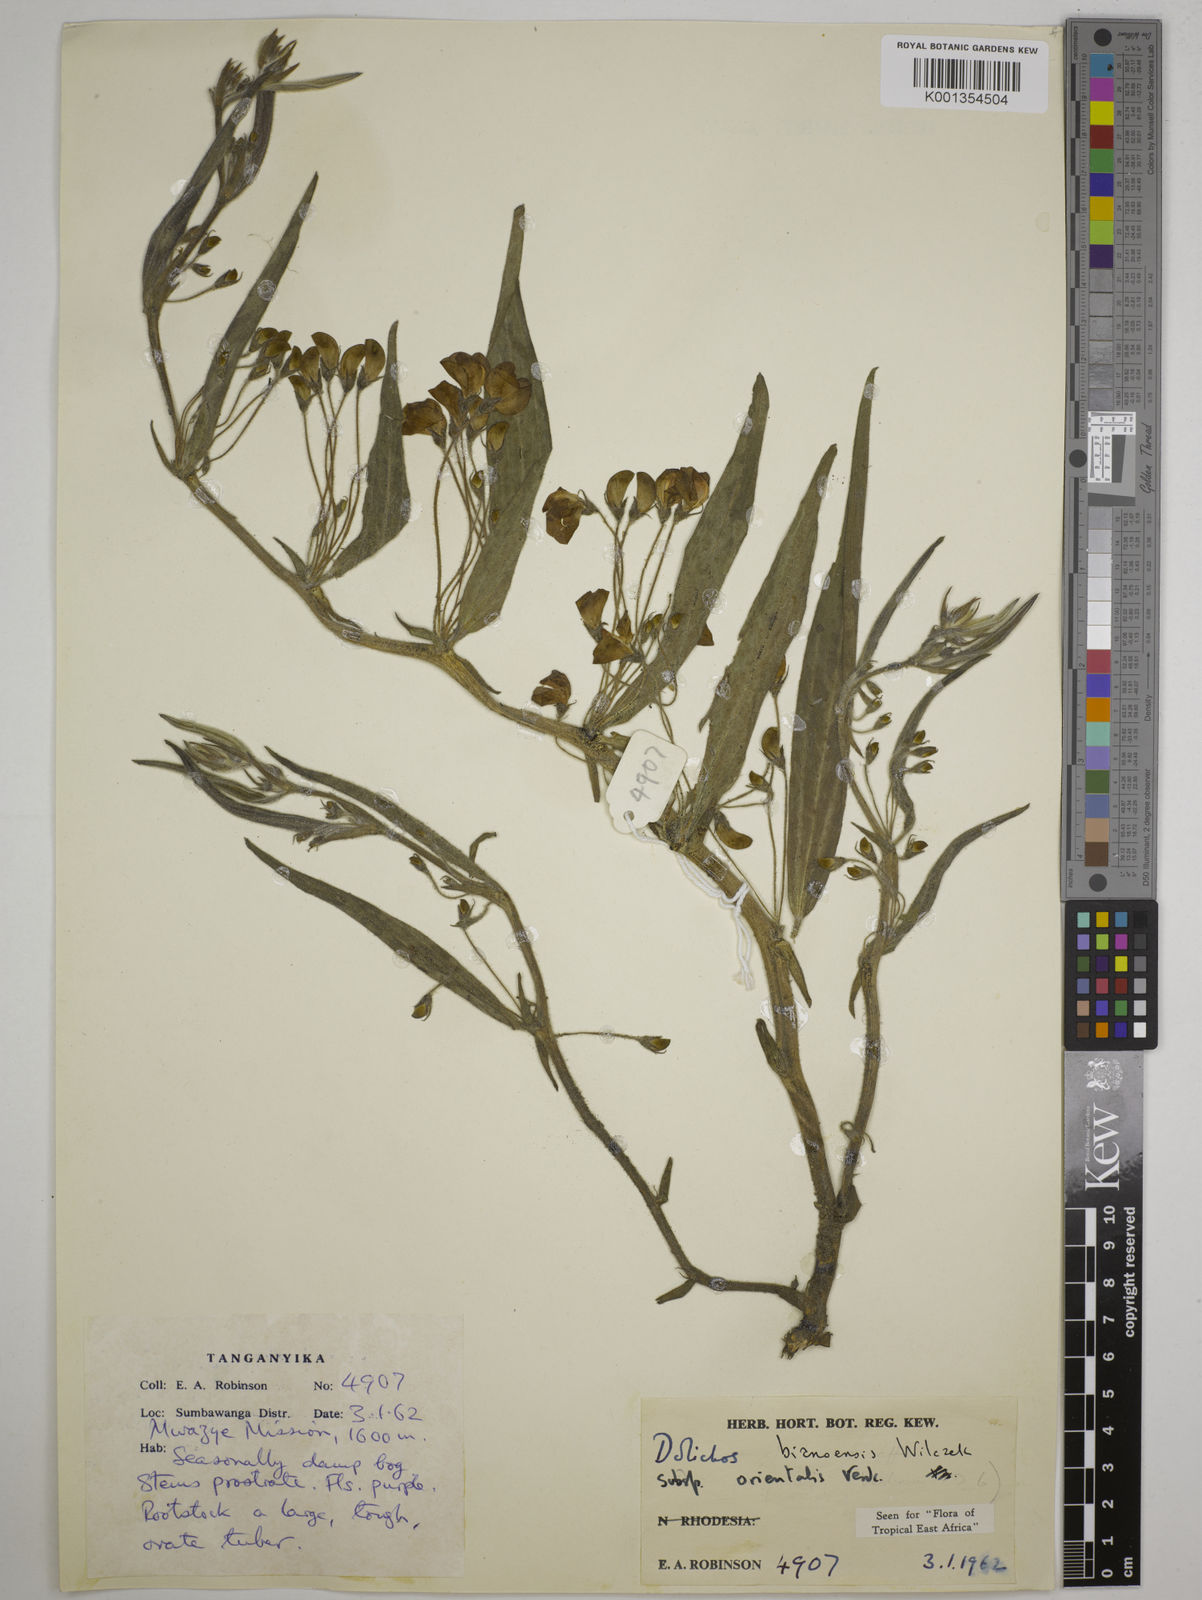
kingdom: Plantae
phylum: Tracheophyta
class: Magnoliopsida
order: Fabales
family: Fabaceae
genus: Dolichos
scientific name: Dolichos
